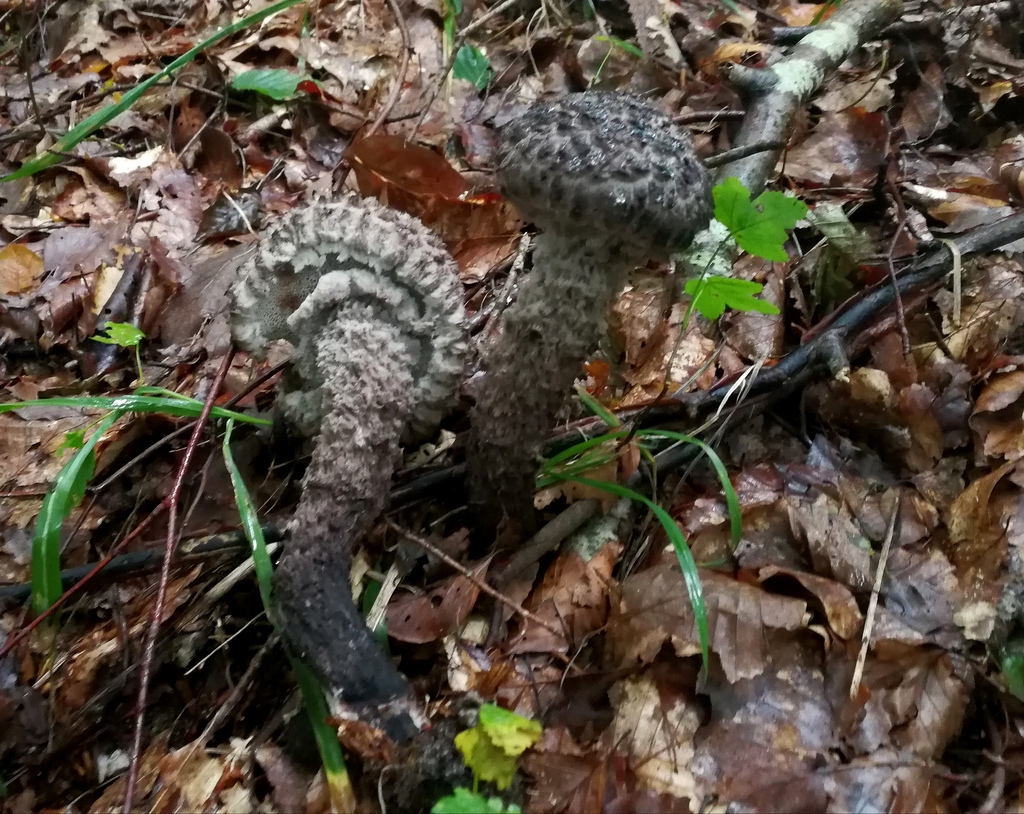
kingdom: Fungi
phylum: Basidiomycota
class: Agaricomycetes
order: Boletales
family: Boletaceae
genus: Strobilomyces
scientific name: Strobilomyces strobilaceus
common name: koglerørhat
